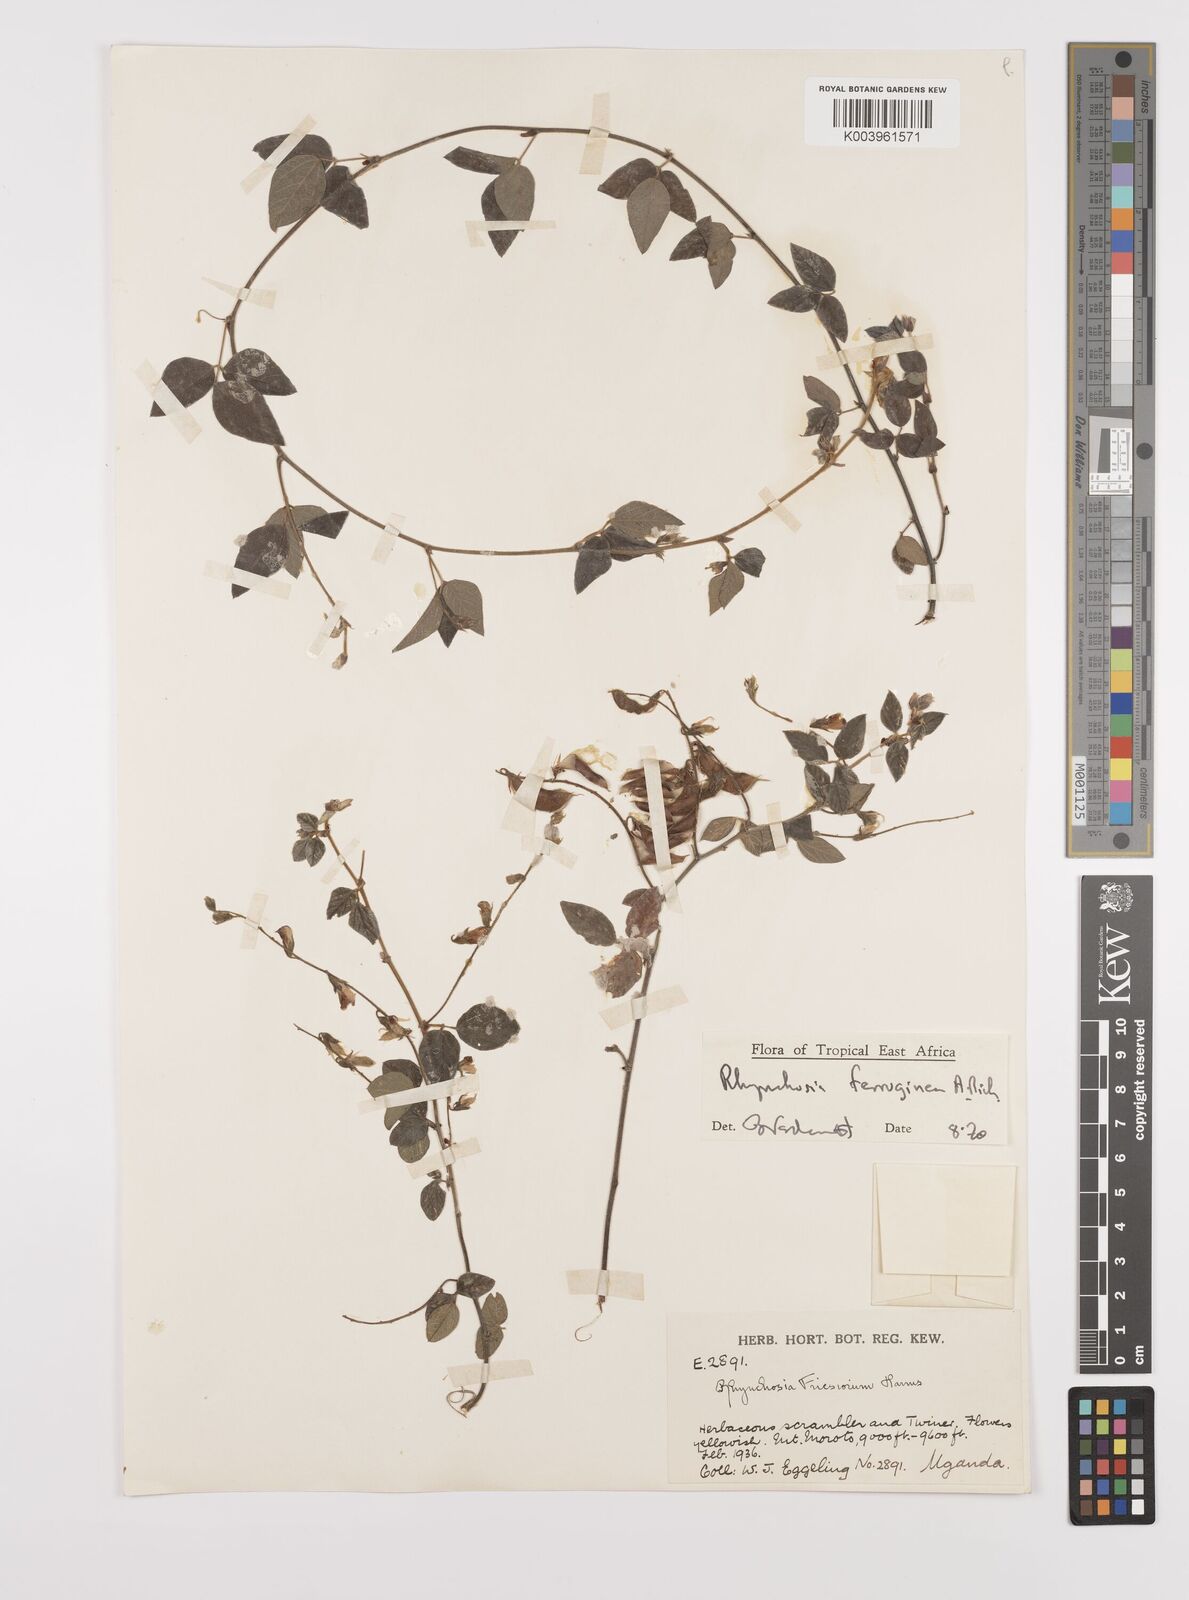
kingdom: Plantae
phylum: Tracheophyta
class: Magnoliopsida
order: Fabales
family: Fabaceae
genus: Rhynchosia
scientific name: Rhynchosia ferruginea
